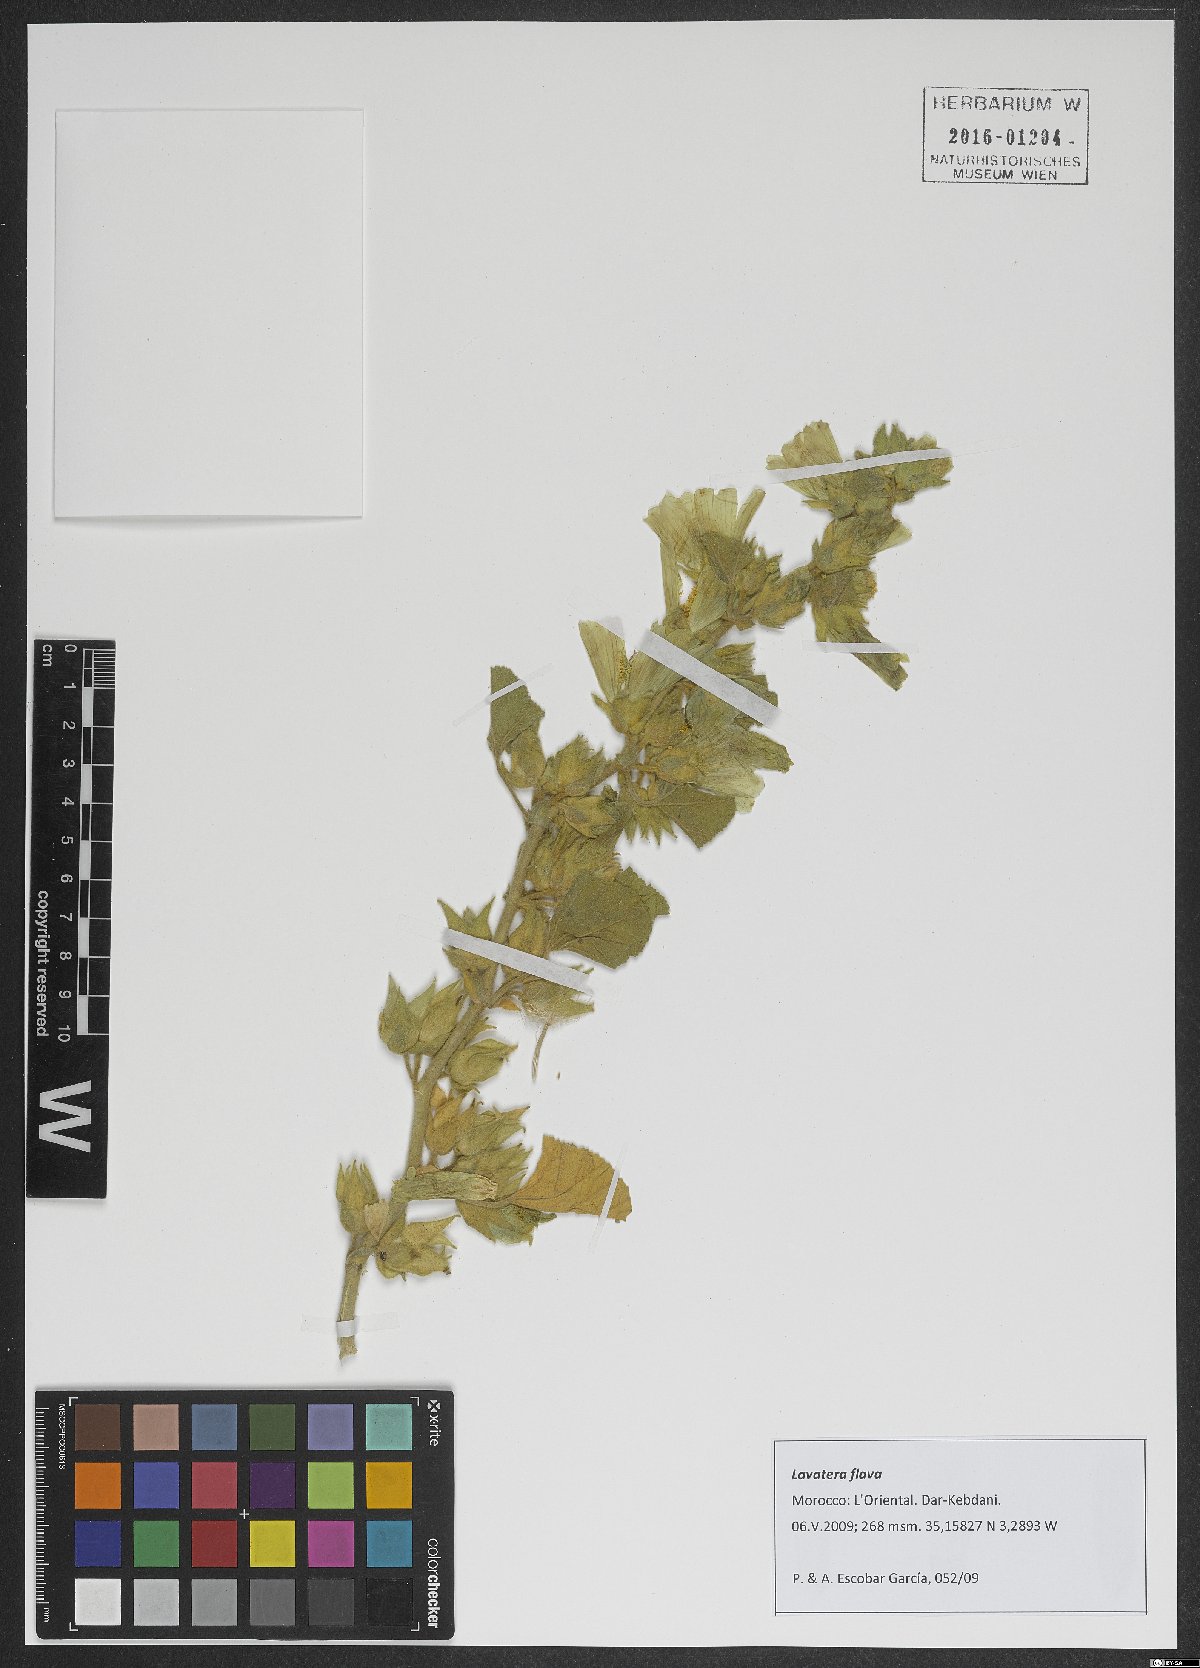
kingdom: Plantae
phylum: Tracheophyta
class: Magnoliopsida
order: Malvales
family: Malvaceae
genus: Malva
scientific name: Malva flava
